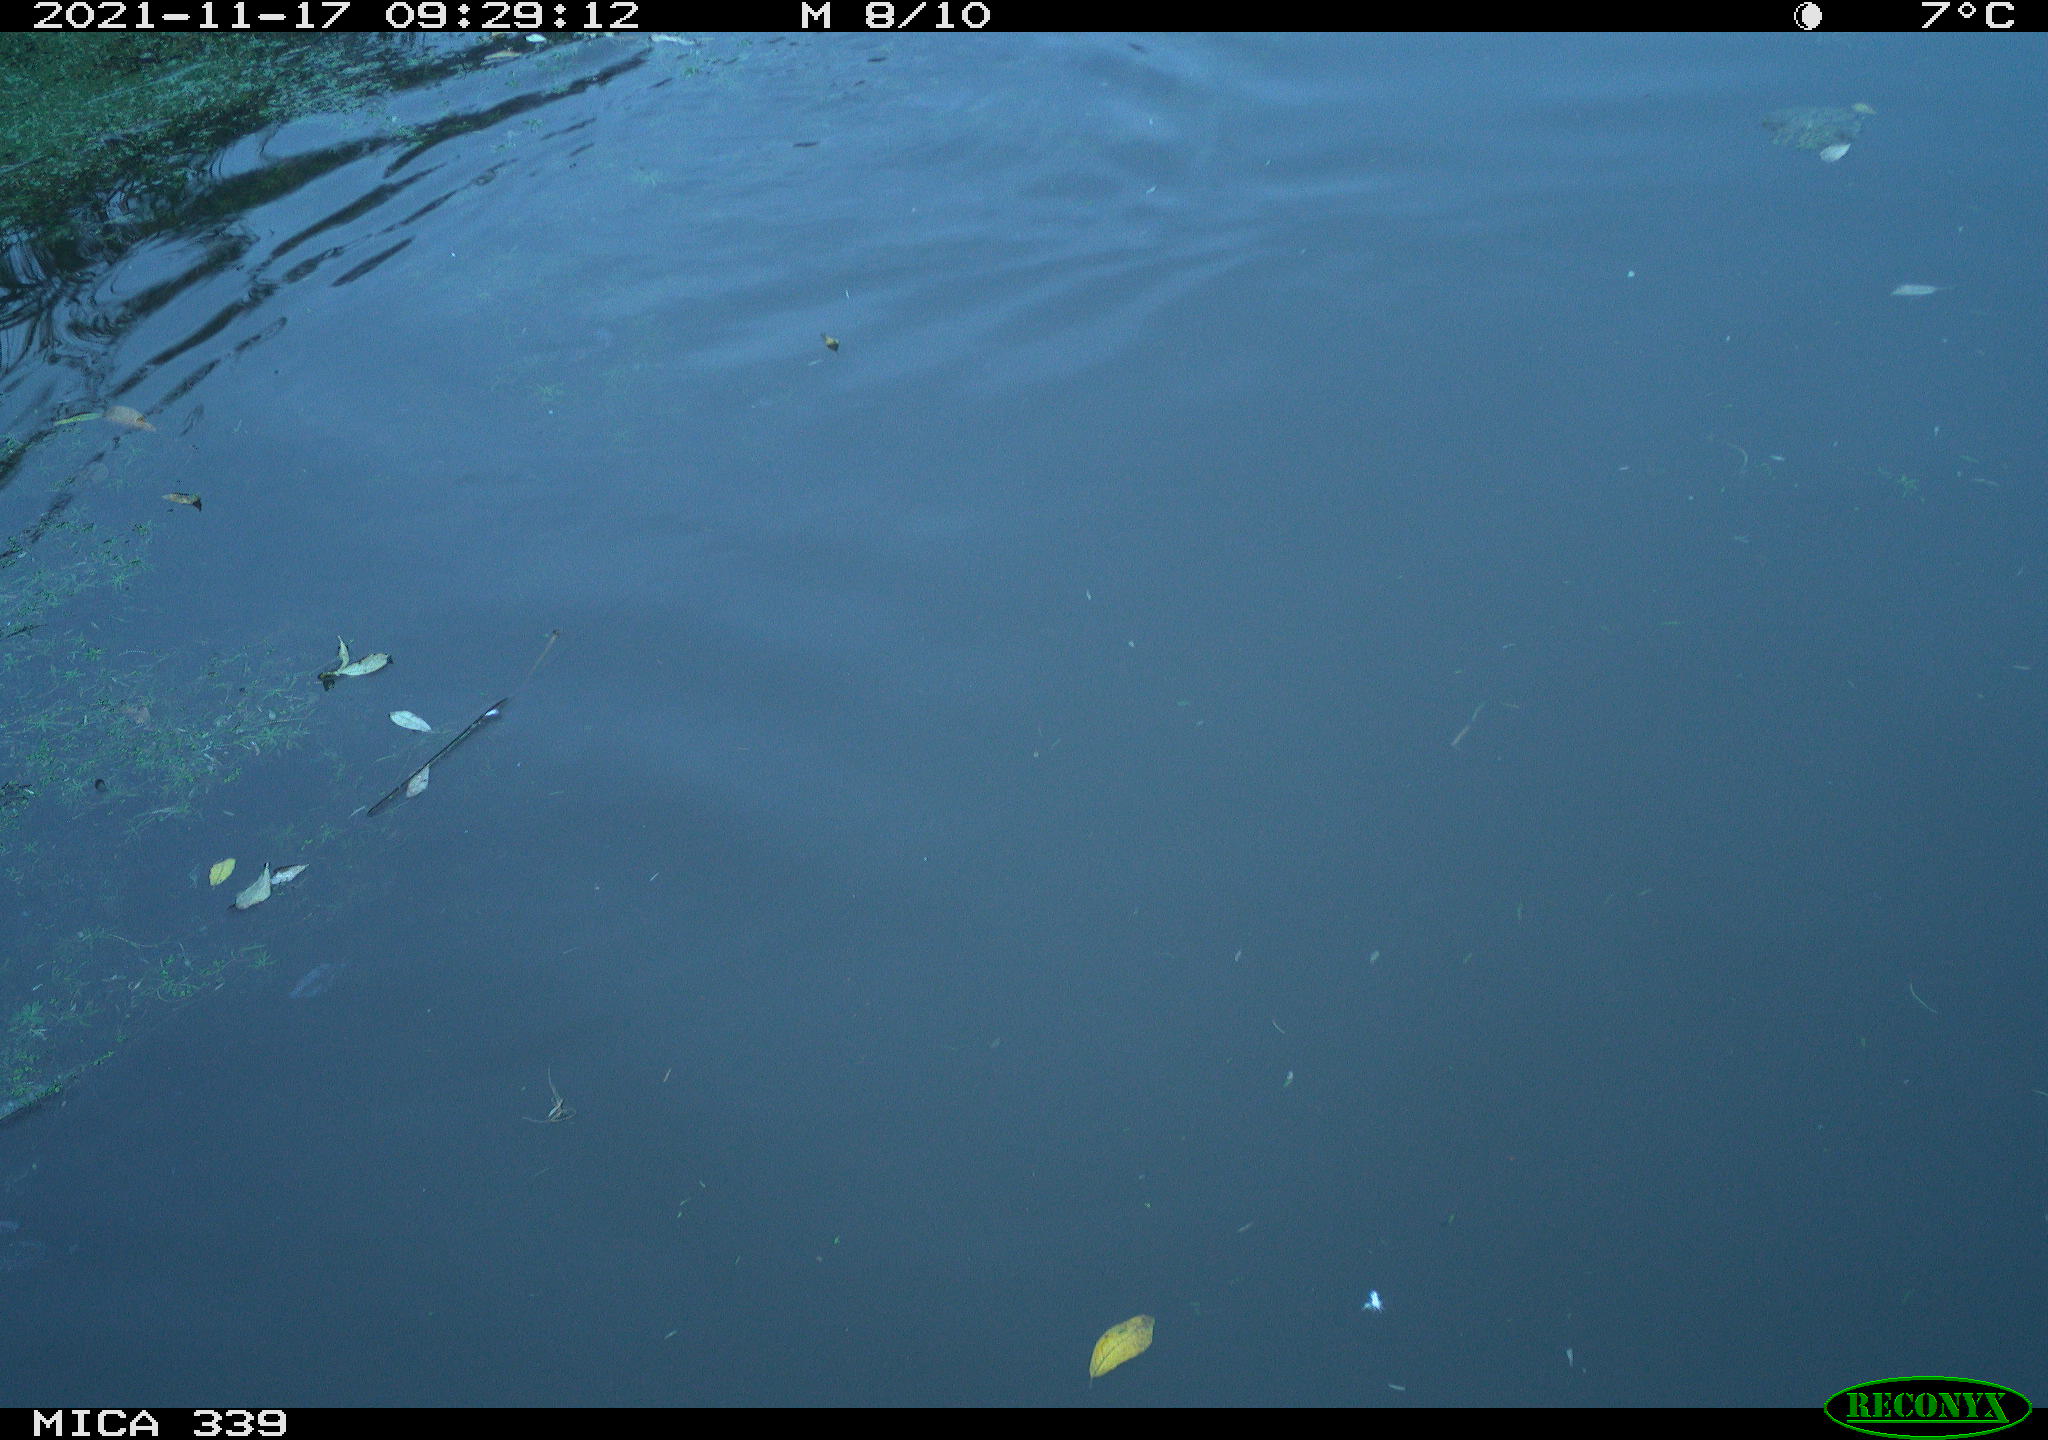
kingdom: Animalia
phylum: Chordata
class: Aves
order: Anseriformes
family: Anatidae
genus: Anas
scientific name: Anas platyrhynchos
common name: Mallard
